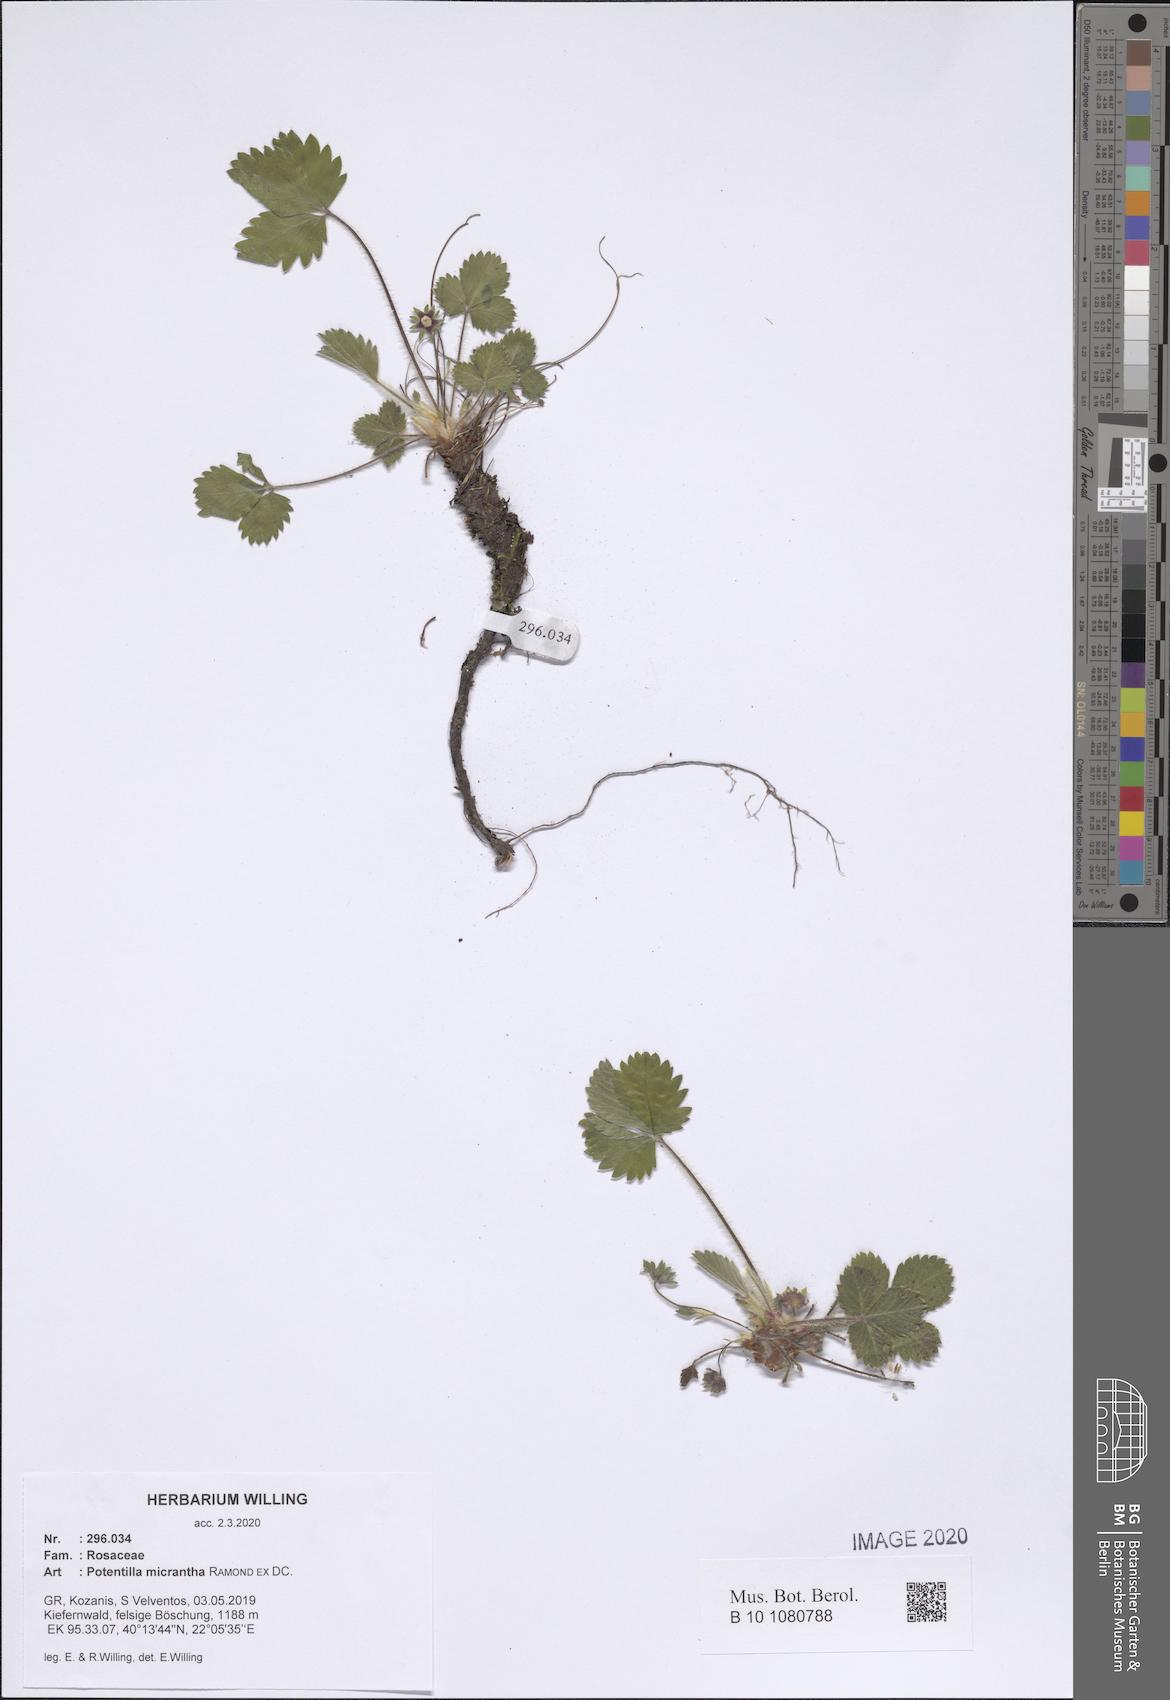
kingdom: Plantae
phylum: Tracheophyta
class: Magnoliopsida
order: Rosales
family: Rosaceae
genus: Potentilla
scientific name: Potentilla micrantha
